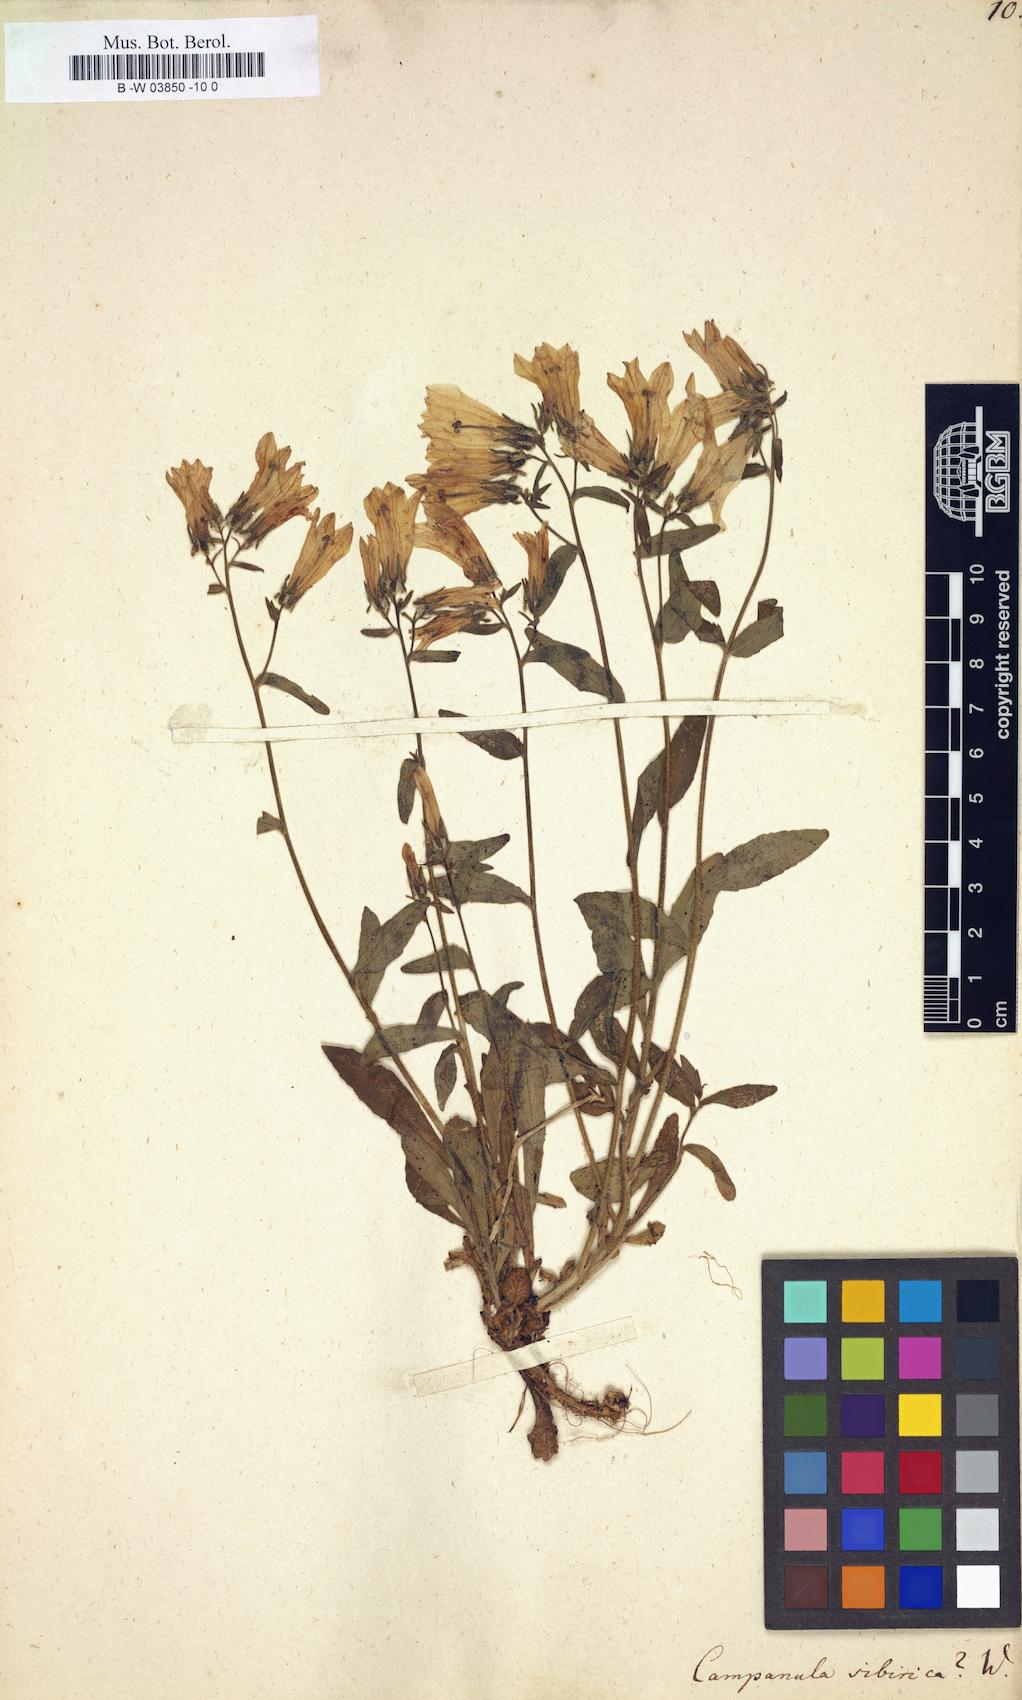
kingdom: Plantae
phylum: Tracheophyta
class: Magnoliopsida
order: Asterales
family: Campanulaceae
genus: Campanula
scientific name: Campanula sibirica
